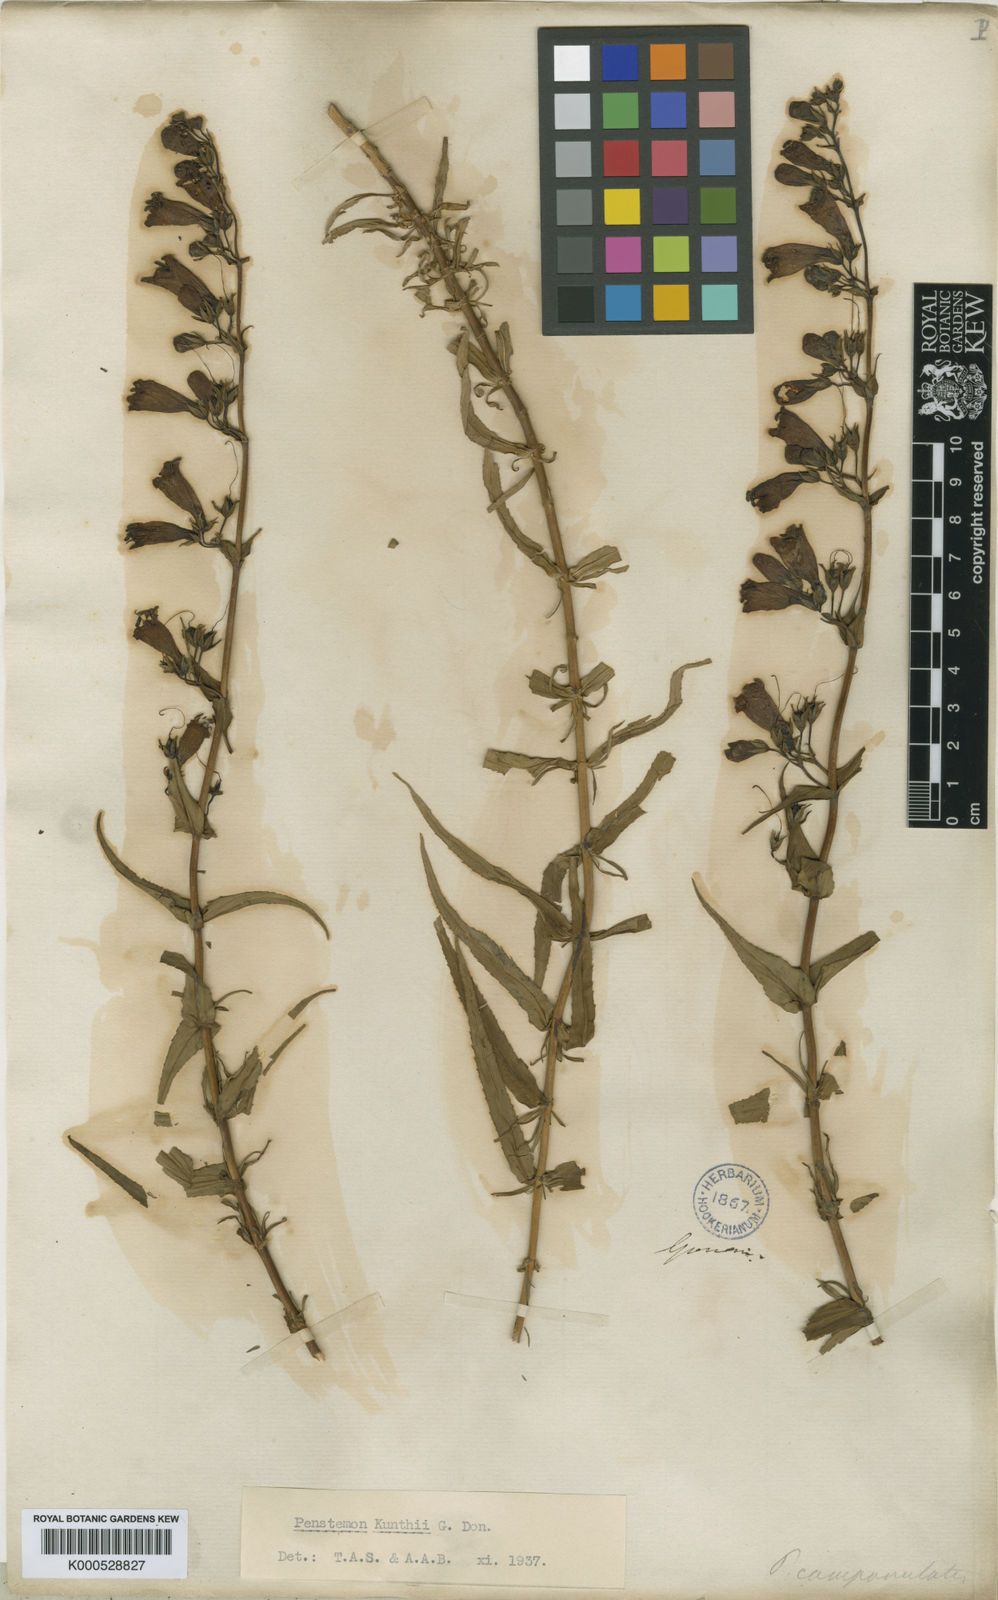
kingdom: Plantae
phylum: Tracheophyta
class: Magnoliopsida
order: Lamiales
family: Plantaginaceae
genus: Penstemon
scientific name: Penstemon roseus
